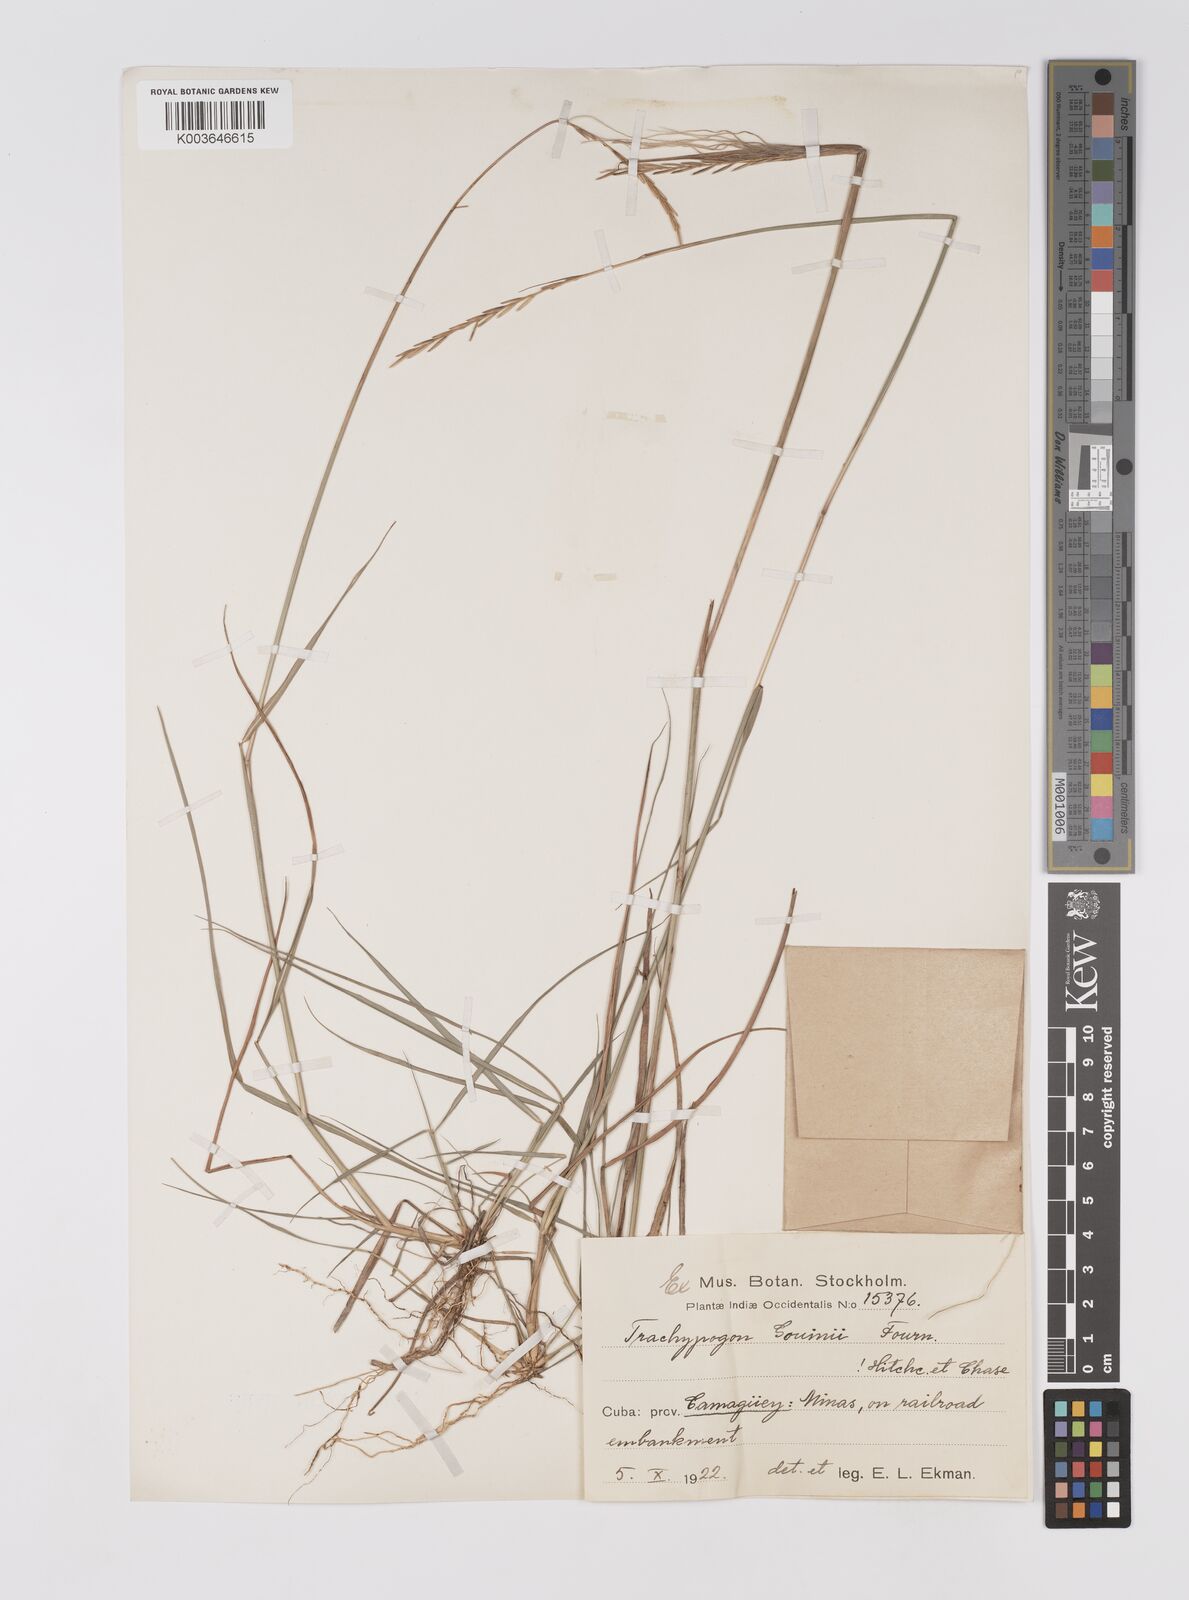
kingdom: Plantae
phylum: Tracheophyta
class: Liliopsida
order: Poales
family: Poaceae
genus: Trachypogon
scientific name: Trachypogon spicatus
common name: Crinkle-awn
